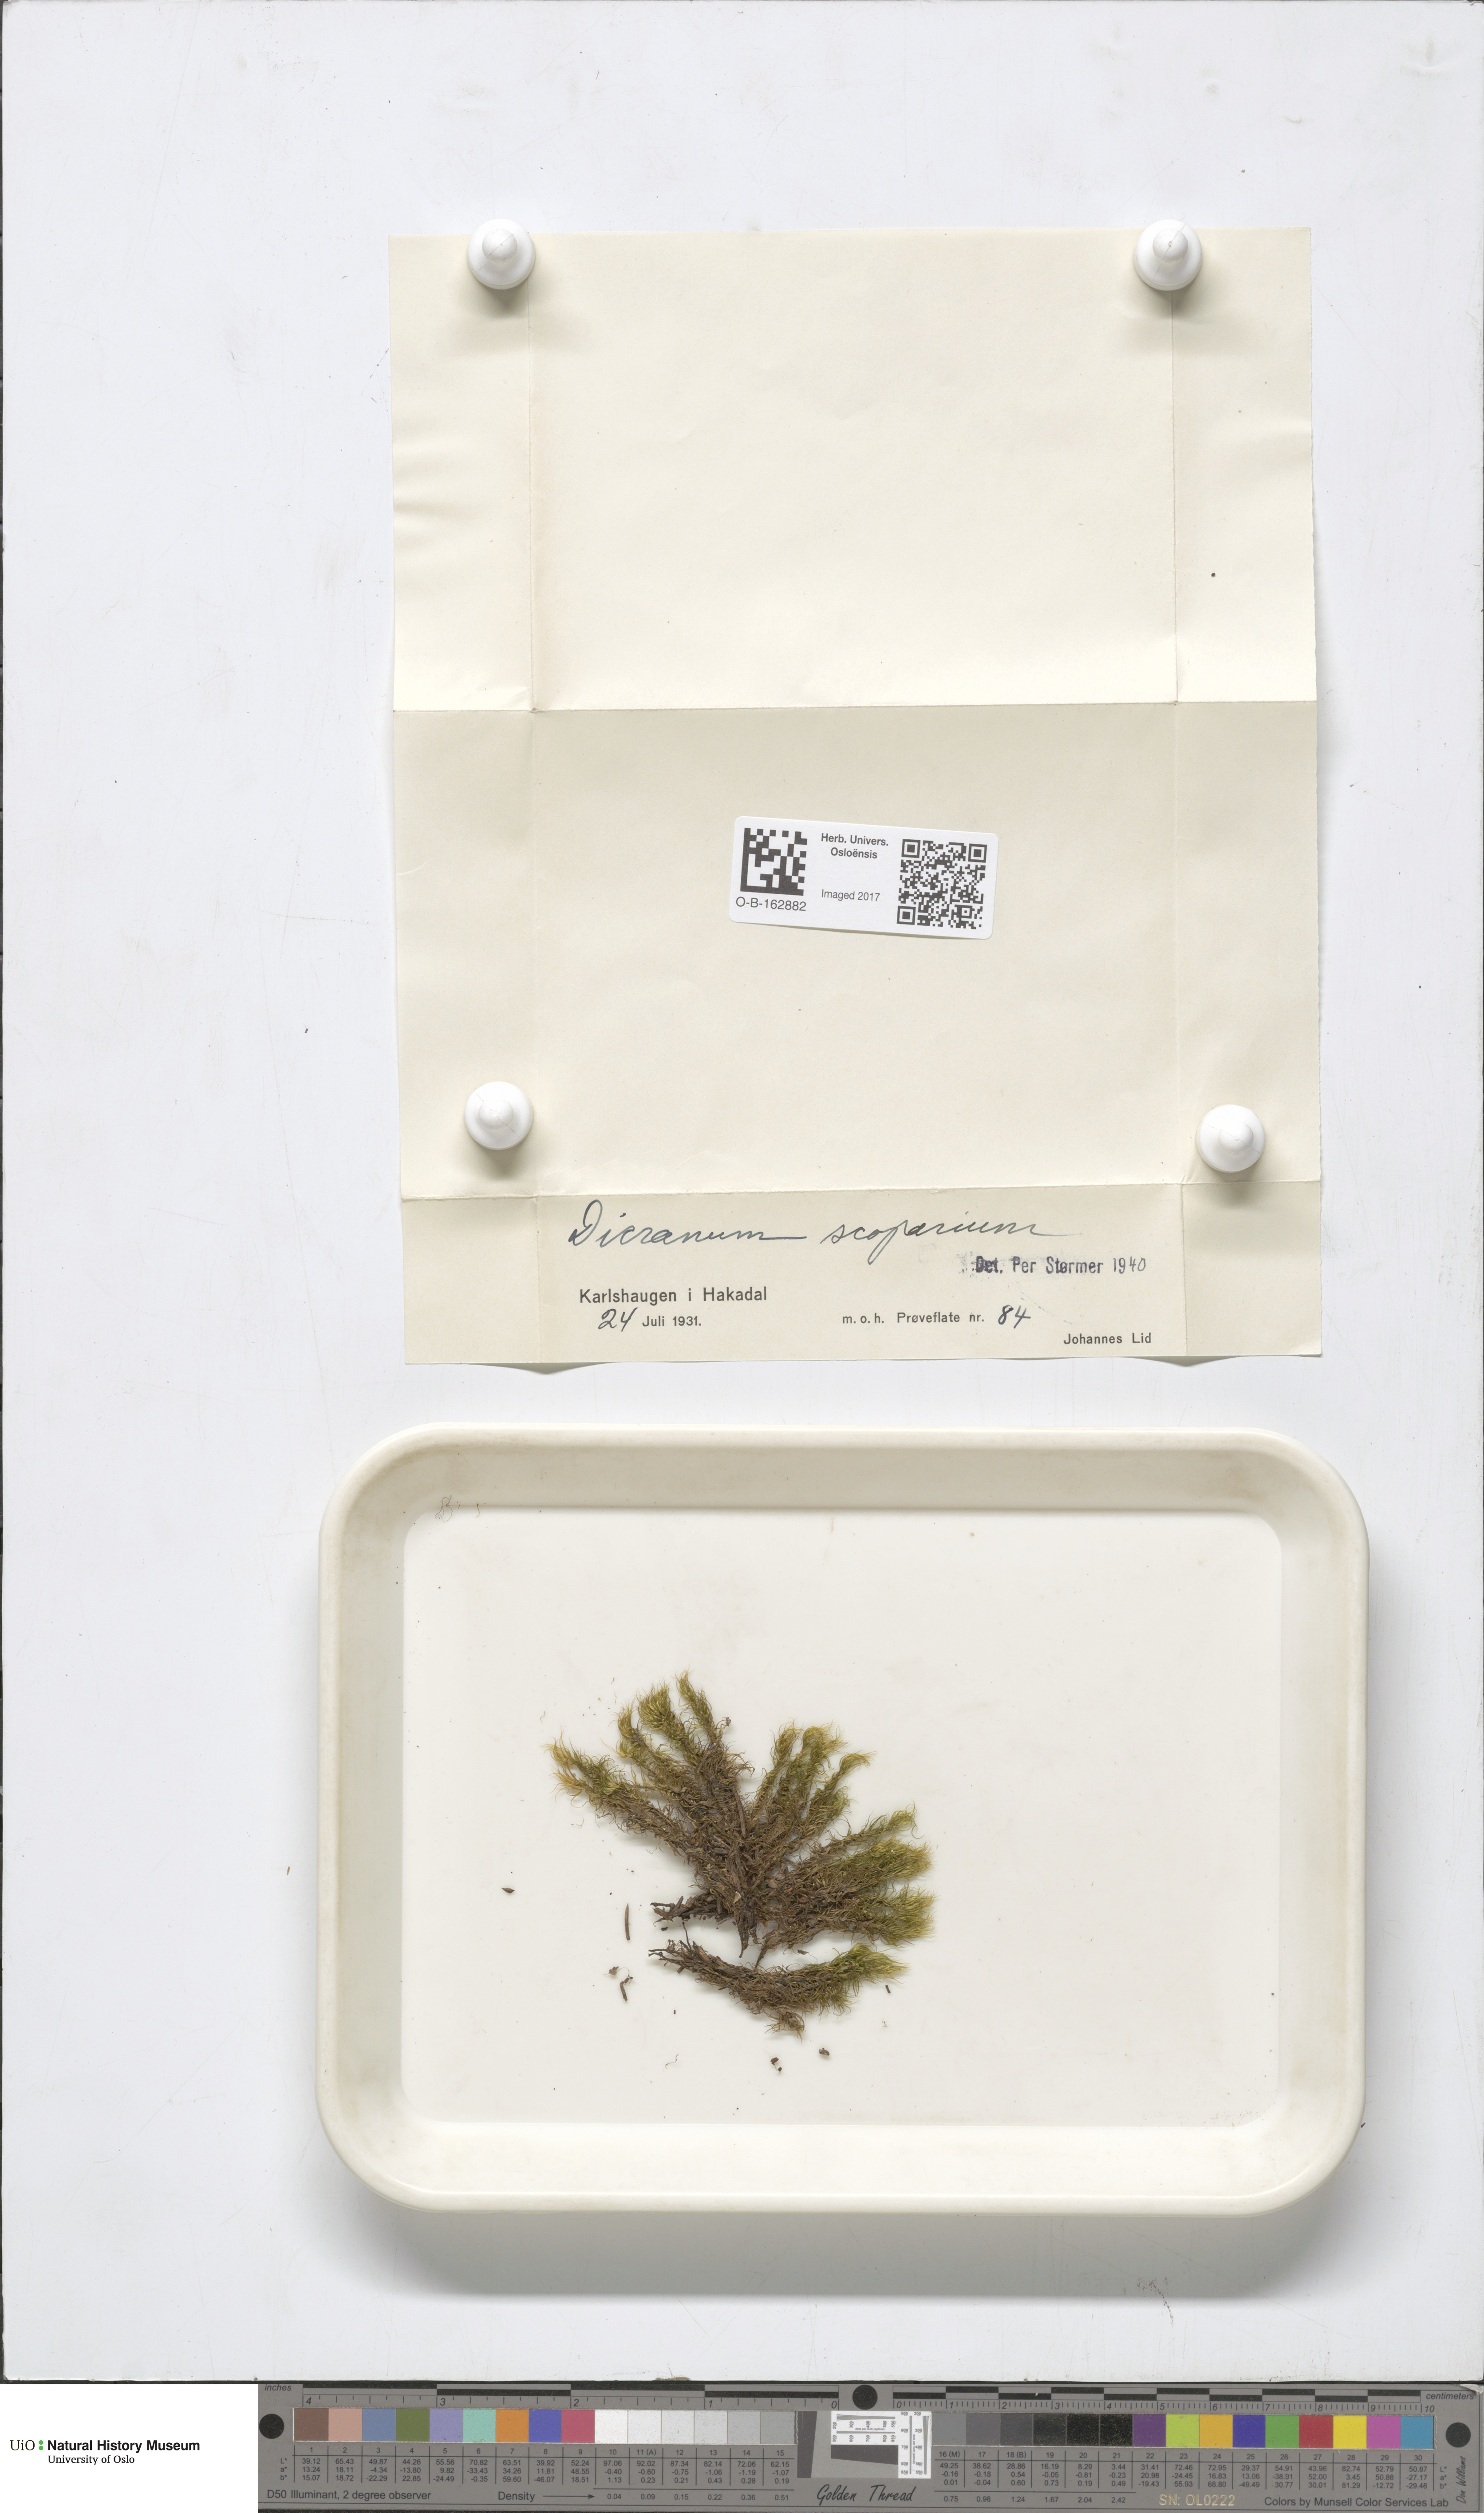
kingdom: Plantae
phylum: Bryophyta
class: Bryopsida
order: Dicranales
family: Dicranaceae
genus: Dicranum
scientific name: Dicranum scoparium
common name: Broom fork-moss
